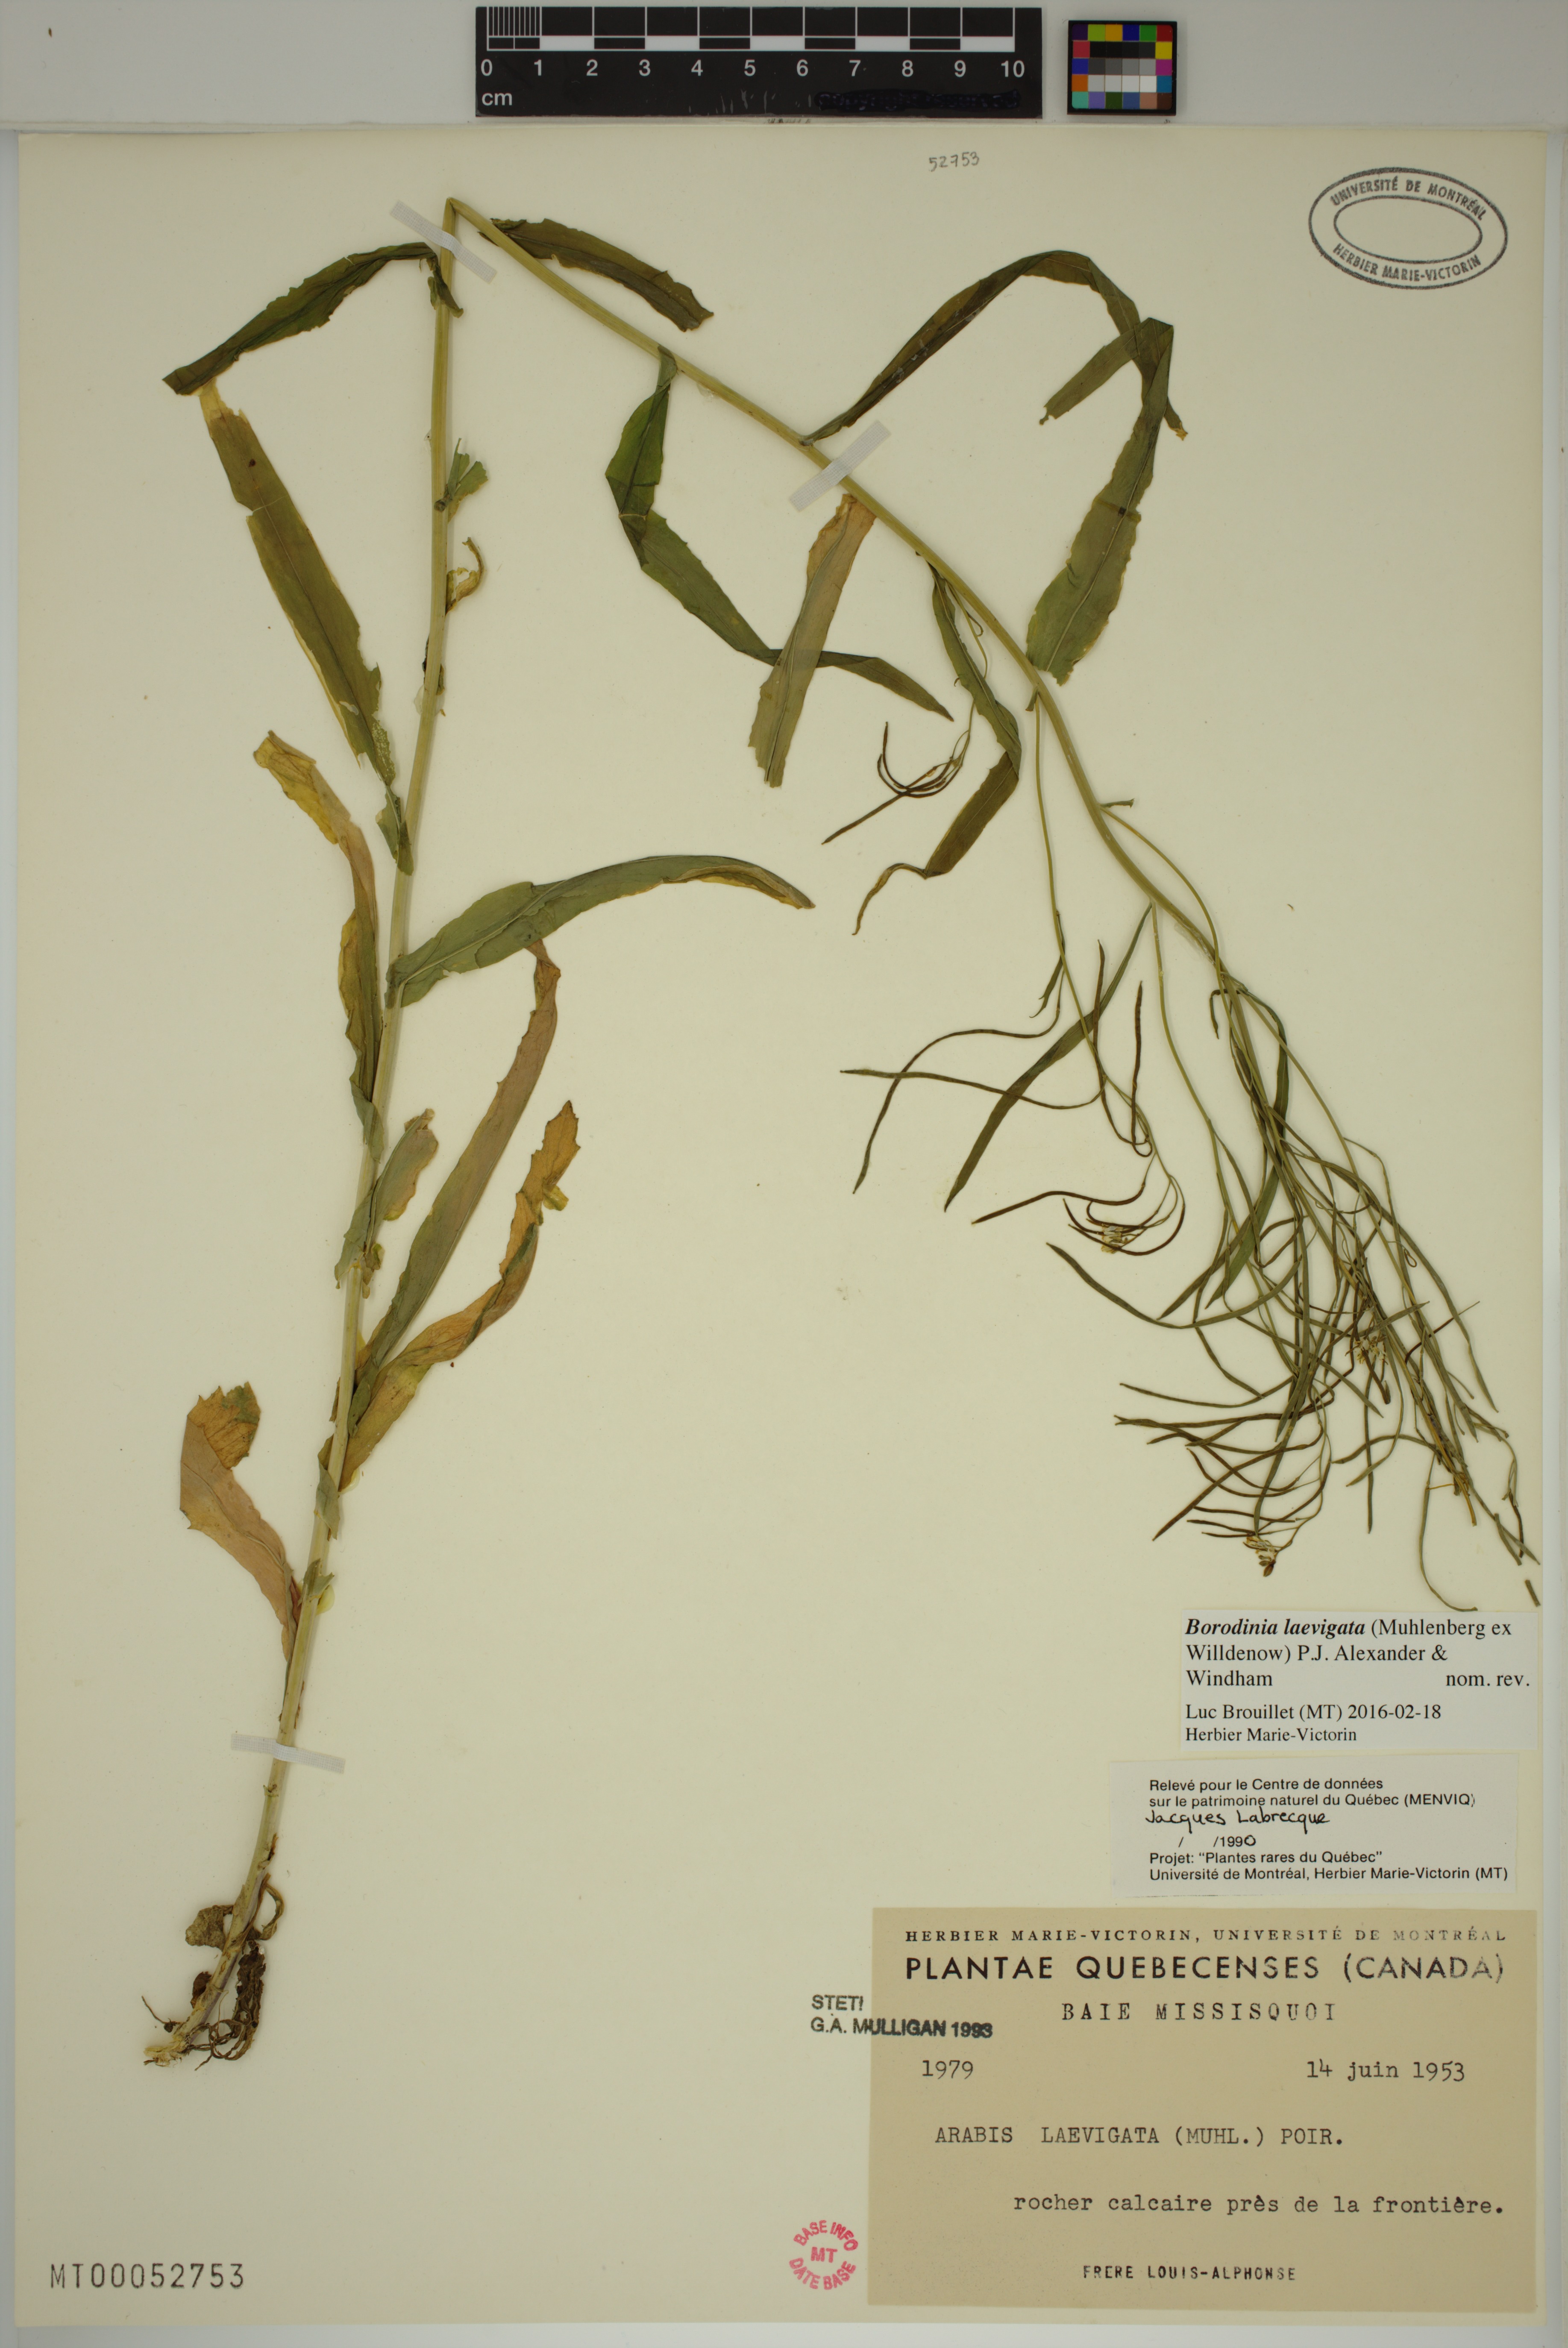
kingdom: Plantae
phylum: Tracheophyta
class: Magnoliopsida
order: Brassicales
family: Brassicaceae
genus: Borodinia
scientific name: Borodinia laevigata
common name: Smooth rockcress
